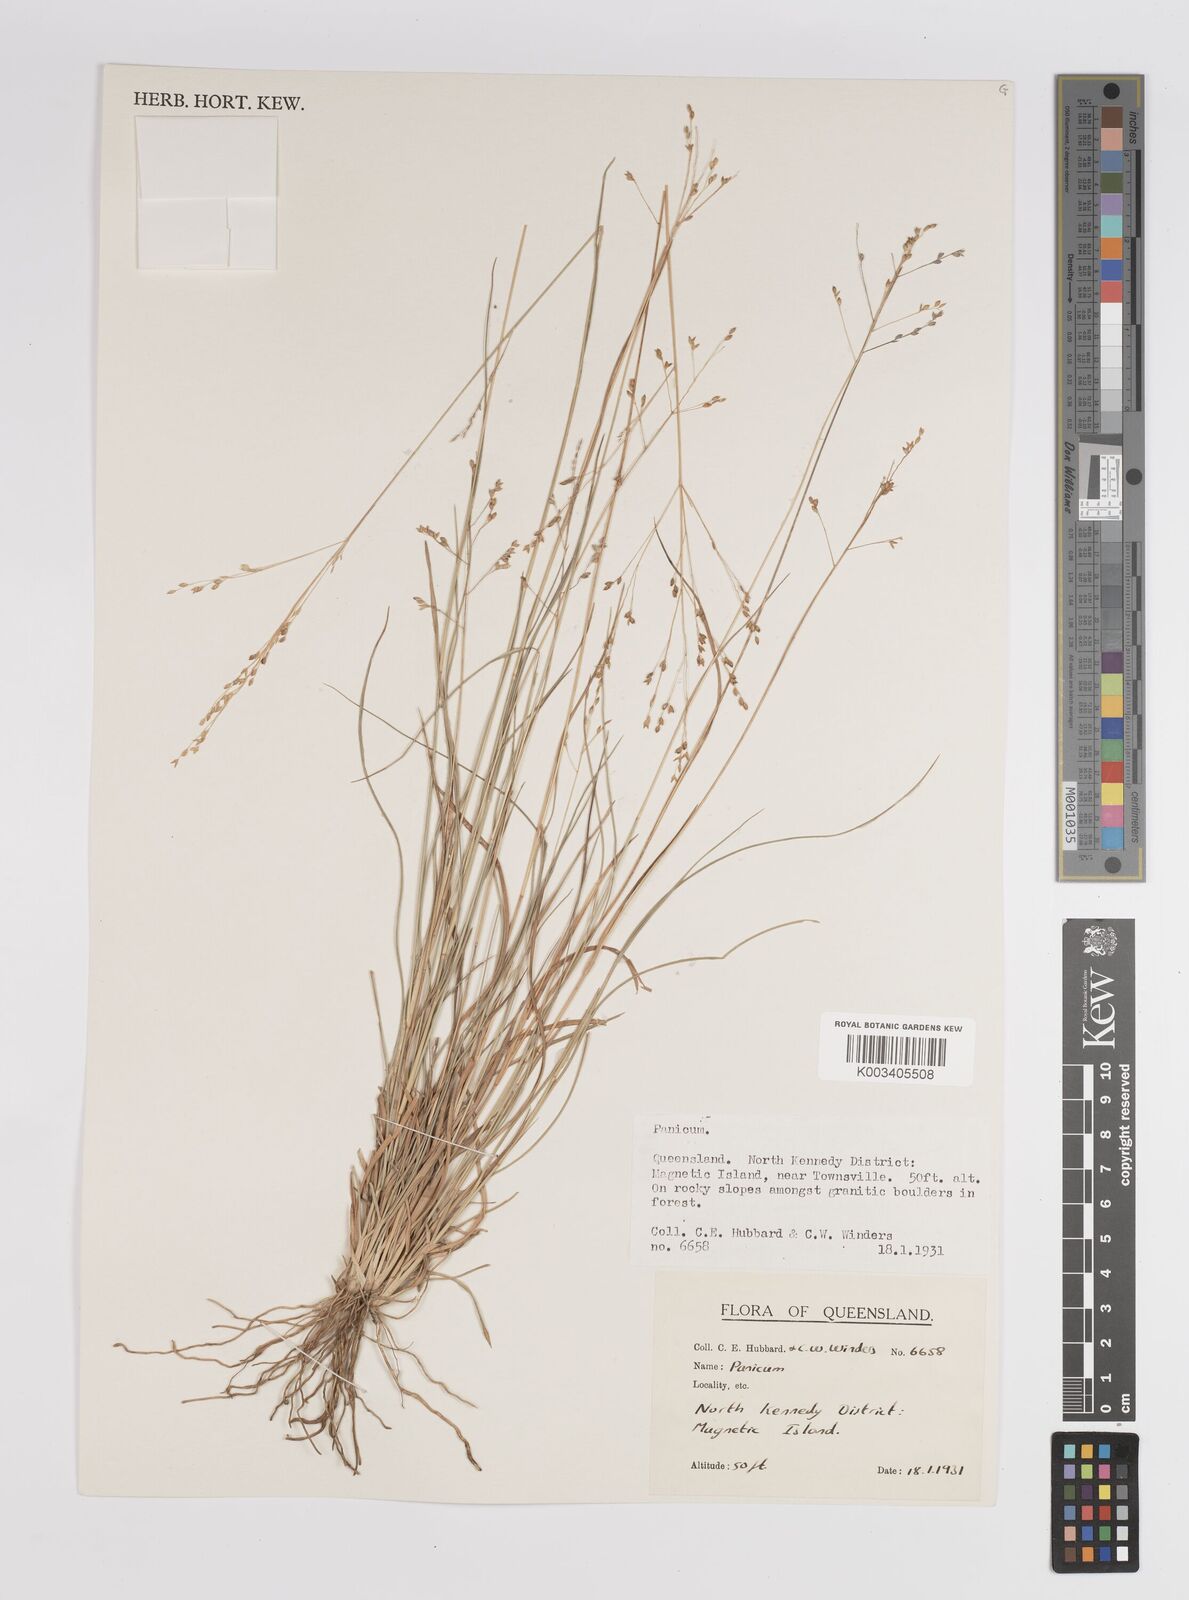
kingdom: Plantae
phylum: Tracheophyta
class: Liliopsida
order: Poales
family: Poaceae
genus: Panicum
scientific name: Panicum
